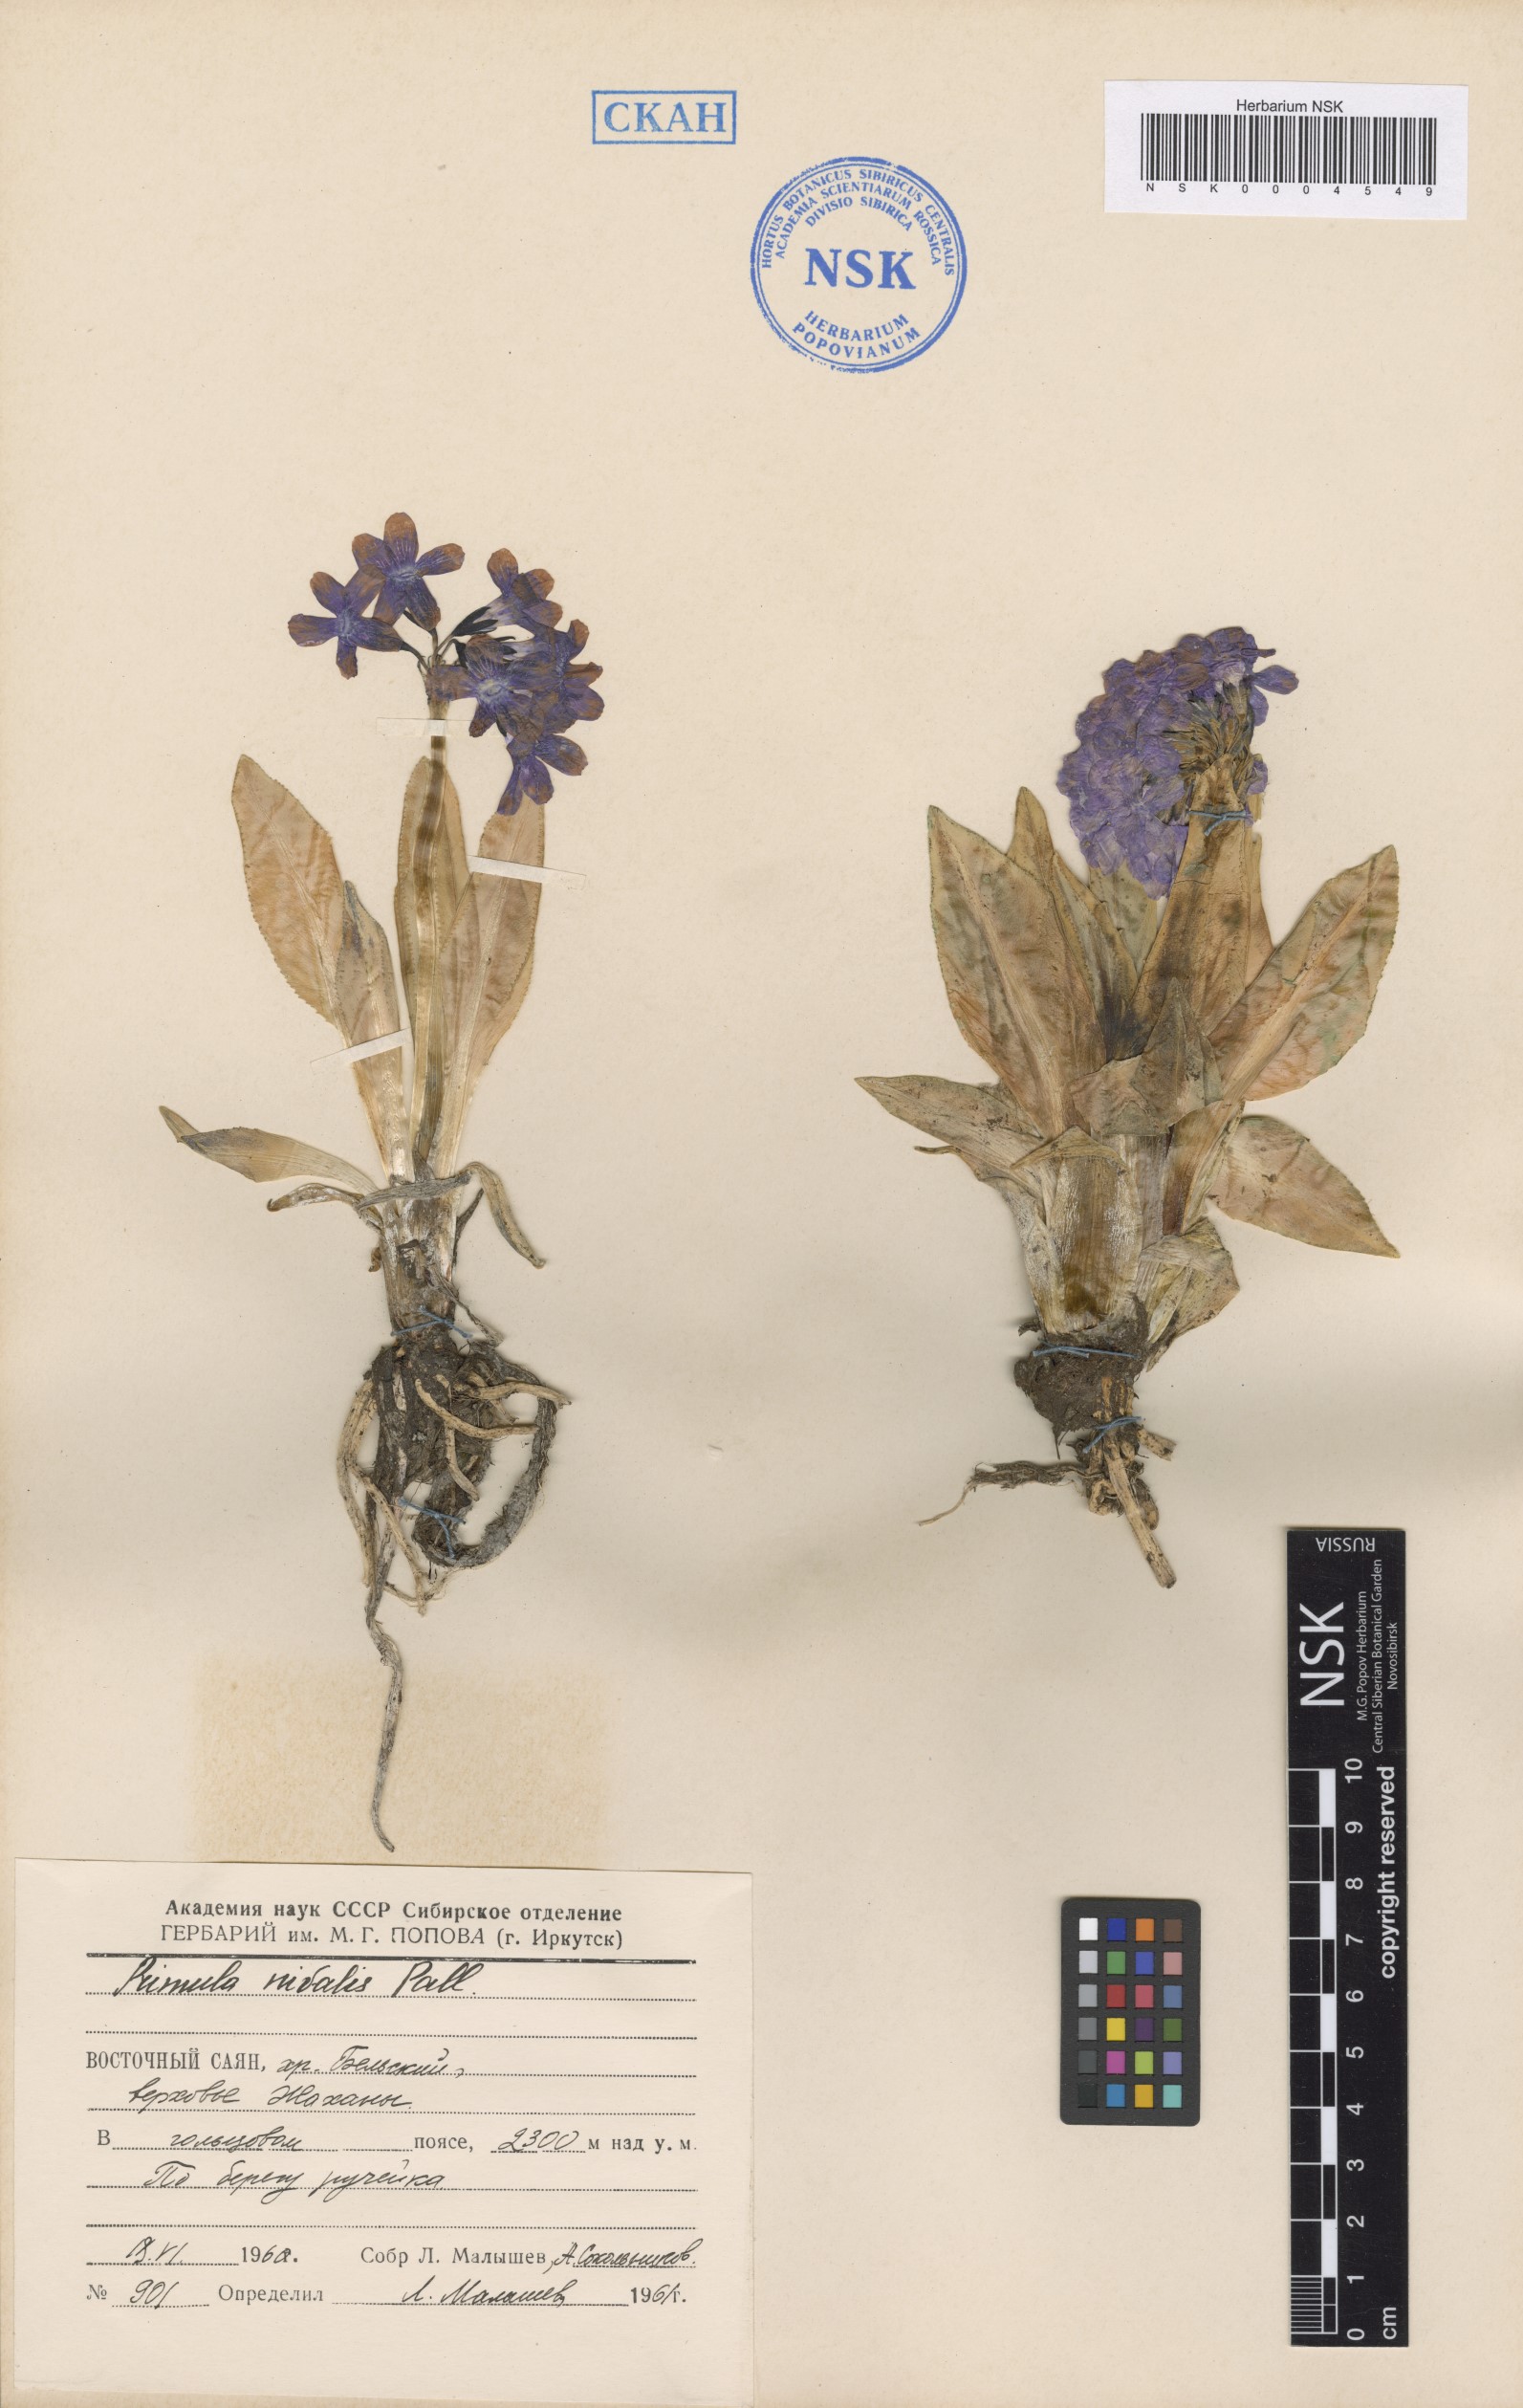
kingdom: Plantae
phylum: Tracheophyta
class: Magnoliopsida
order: Ericales
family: Primulaceae
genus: Primula
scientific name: Primula nivalis
